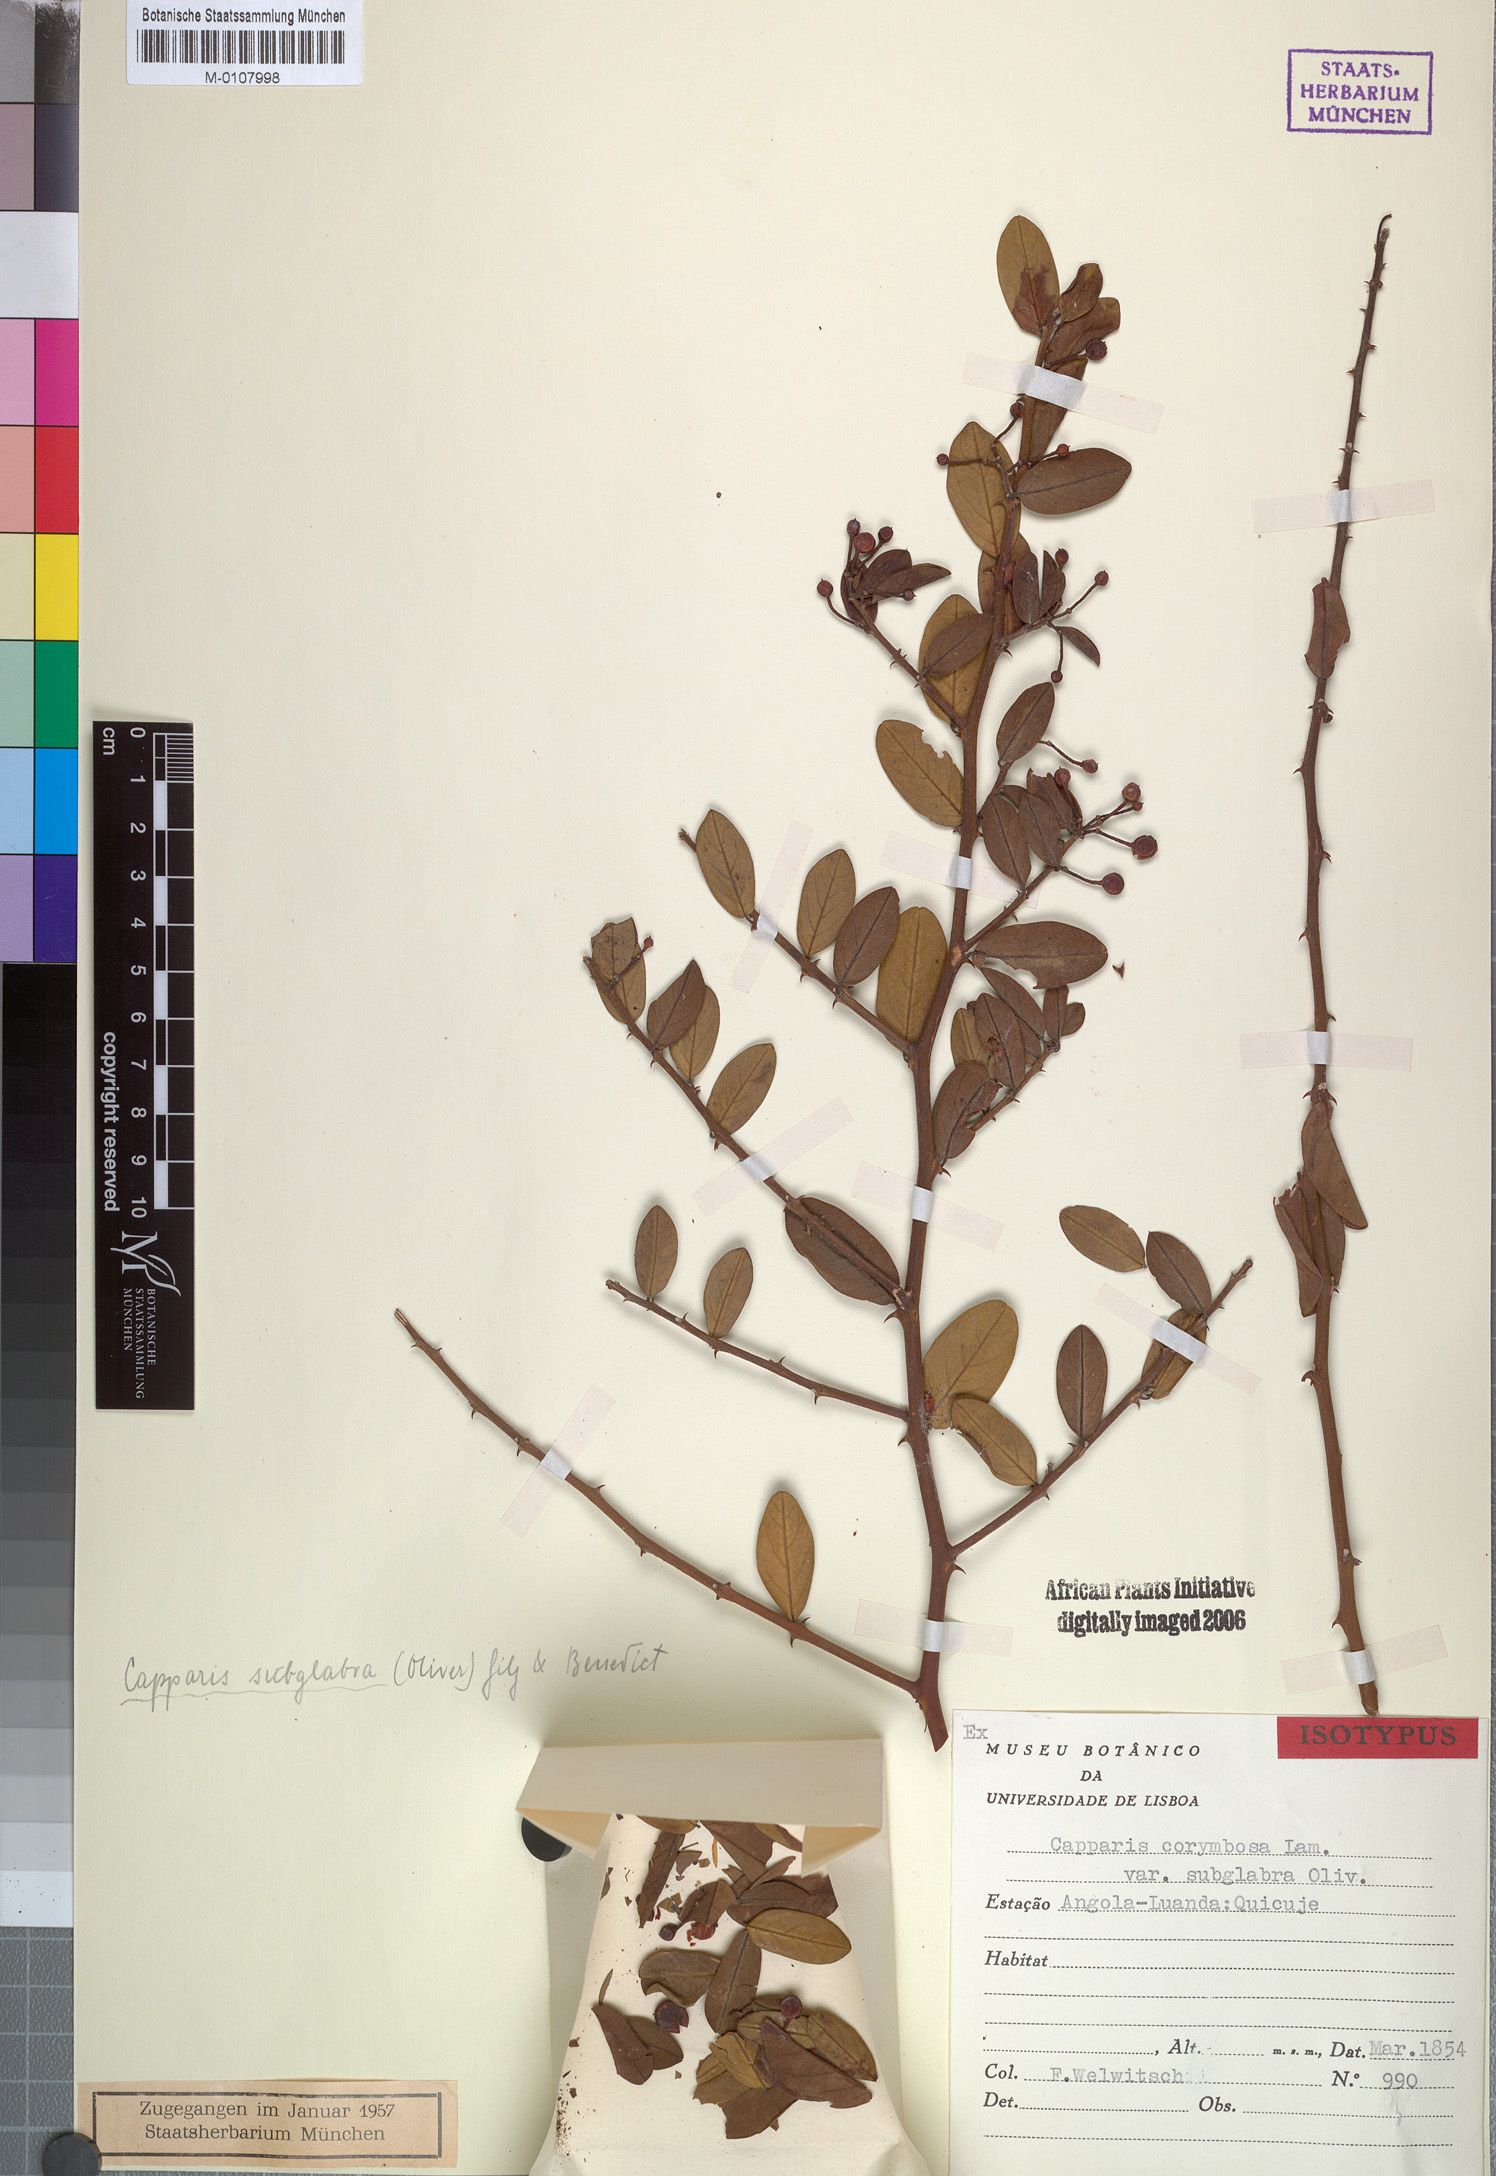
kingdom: Plantae
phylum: Tracheophyta
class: Magnoliopsida
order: Brassicales
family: Capparaceae
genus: Capparis
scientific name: Capparis sepiaria
